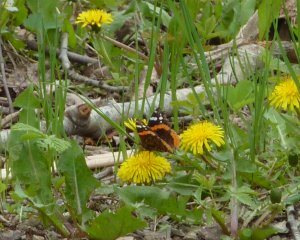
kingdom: Animalia
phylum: Arthropoda
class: Insecta
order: Lepidoptera
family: Nymphalidae
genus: Vanessa
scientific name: Vanessa atalanta
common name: Red Admiral
